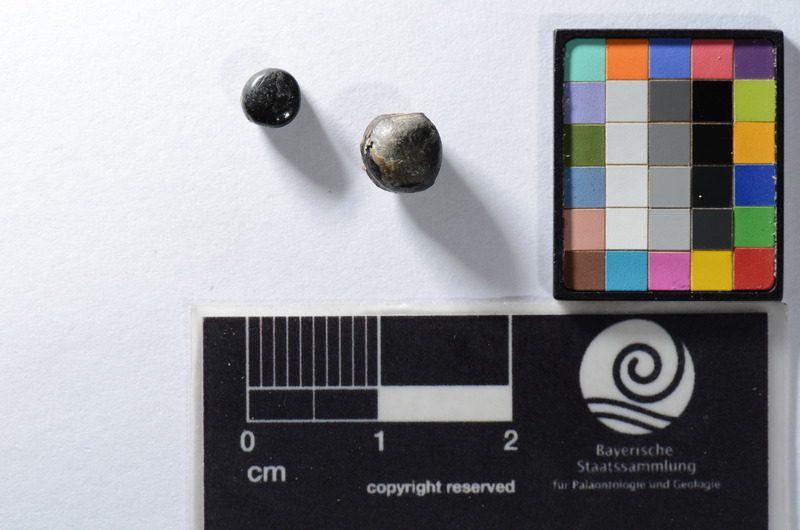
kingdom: Animalia
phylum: Chordata
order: Perciformes
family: Sparidae
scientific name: Sparidae
